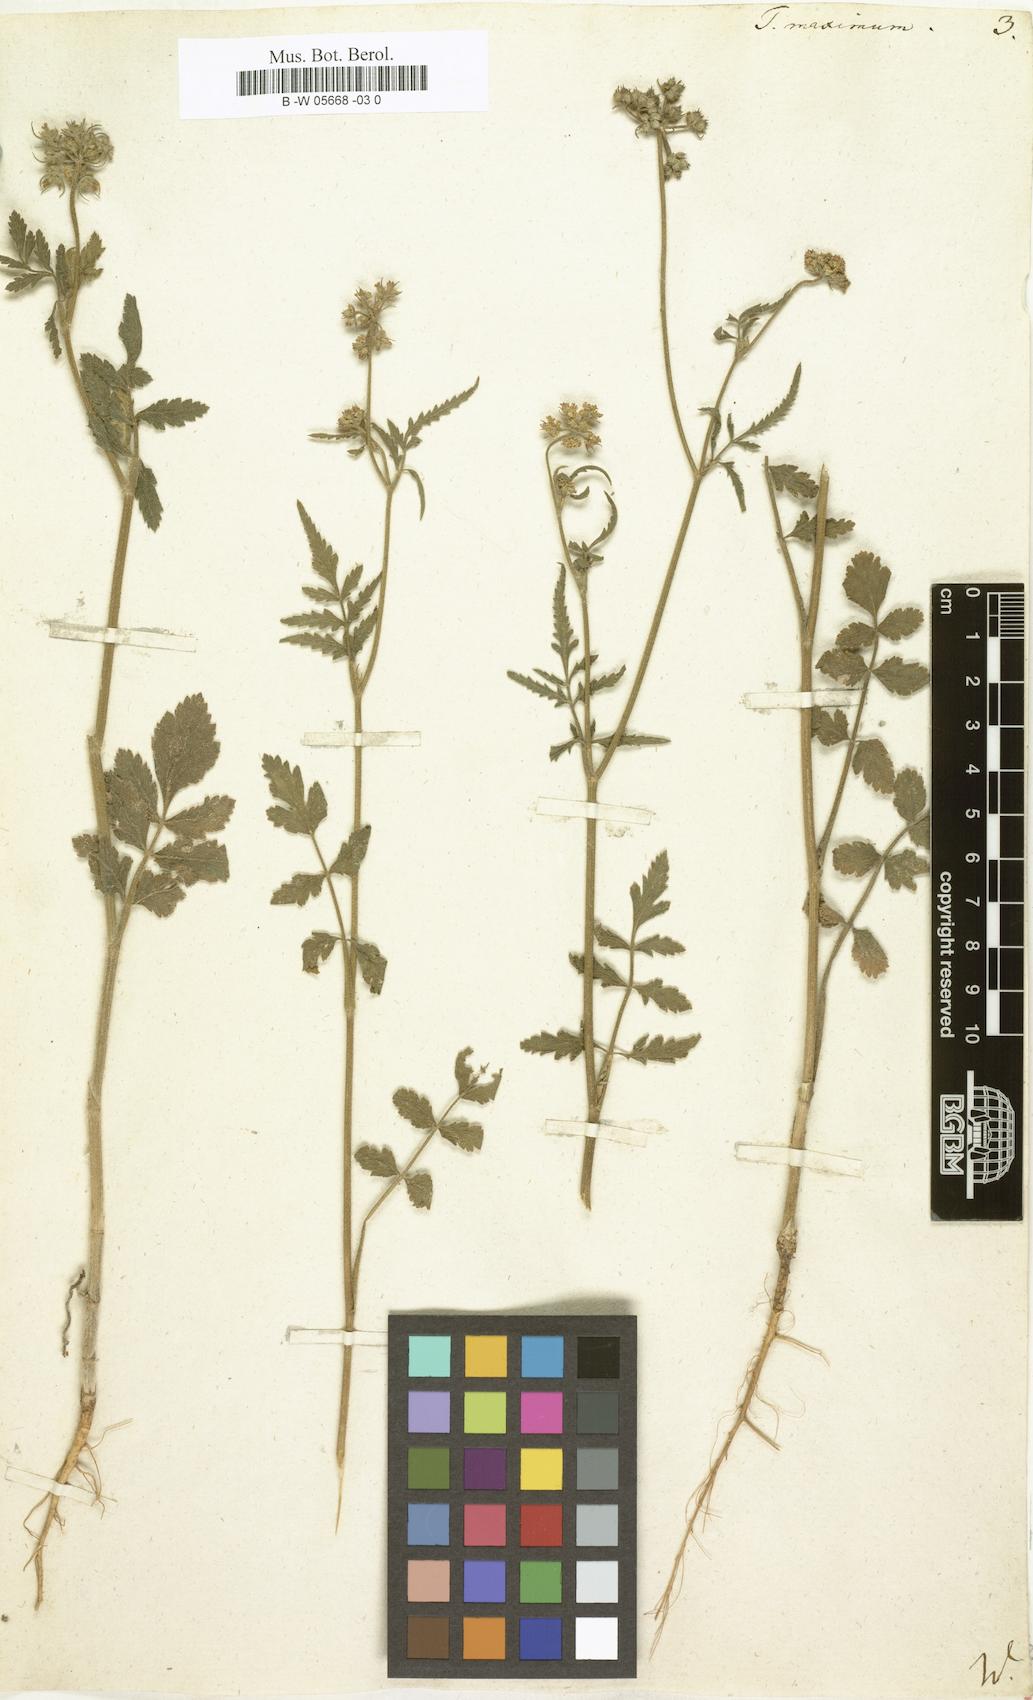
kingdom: Plantae
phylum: Tracheophyta
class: Magnoliopsida
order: Apiales
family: Apiaceae
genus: Tordylium
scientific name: Tordylium maximum
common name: Hartwort
